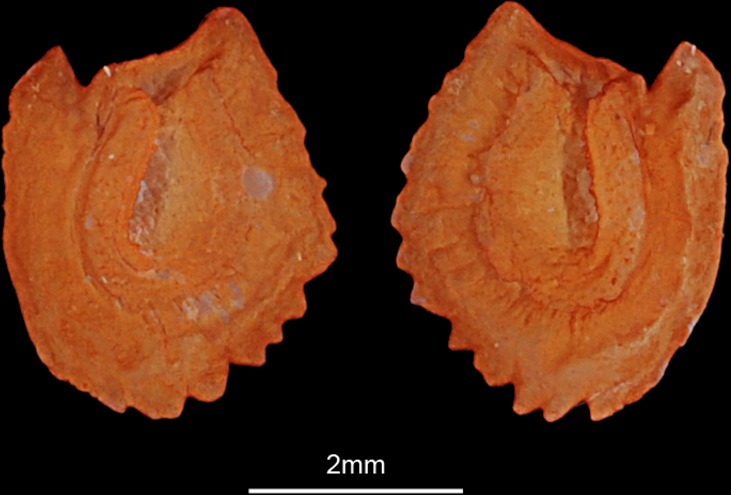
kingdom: Animalia
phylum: Chordata
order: Cypriniformes
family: Cyprinidae
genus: Luciobarbus
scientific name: Luciobarbus kersin
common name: Berzem
